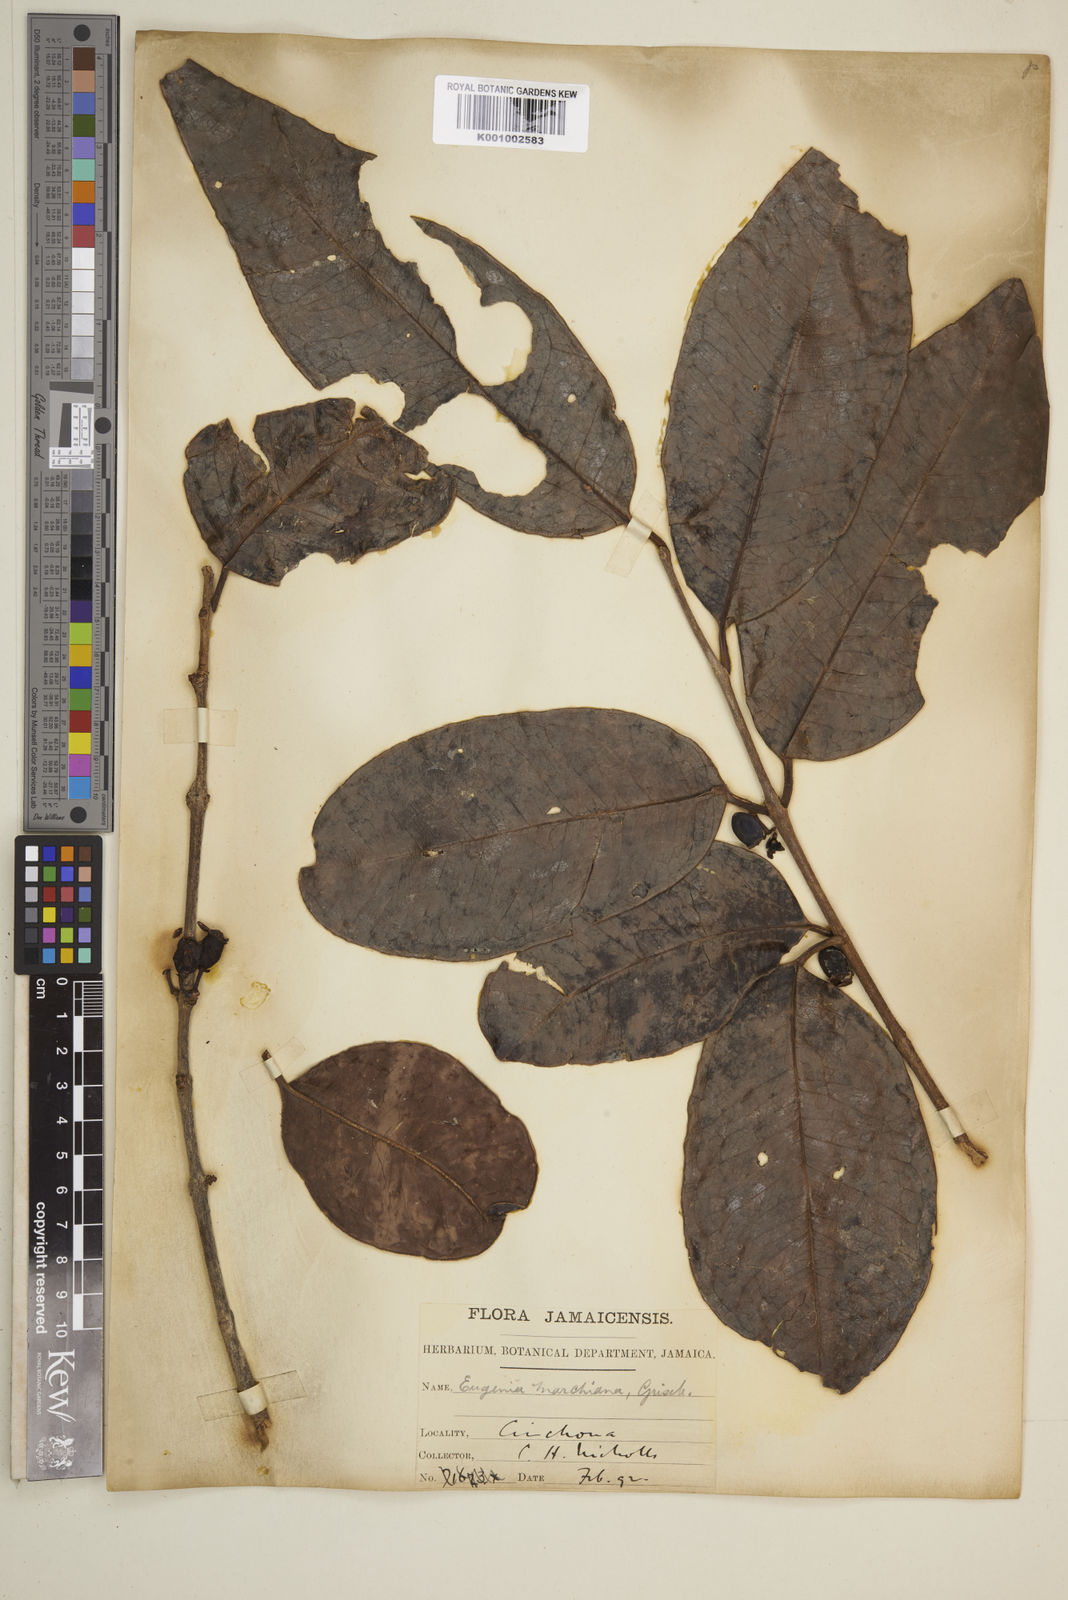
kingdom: Plantae
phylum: Tracheophyta
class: Magnoliopsida
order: Myrtales
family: Myrtaceae
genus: Eugenia
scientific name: Eugenia marshiana
